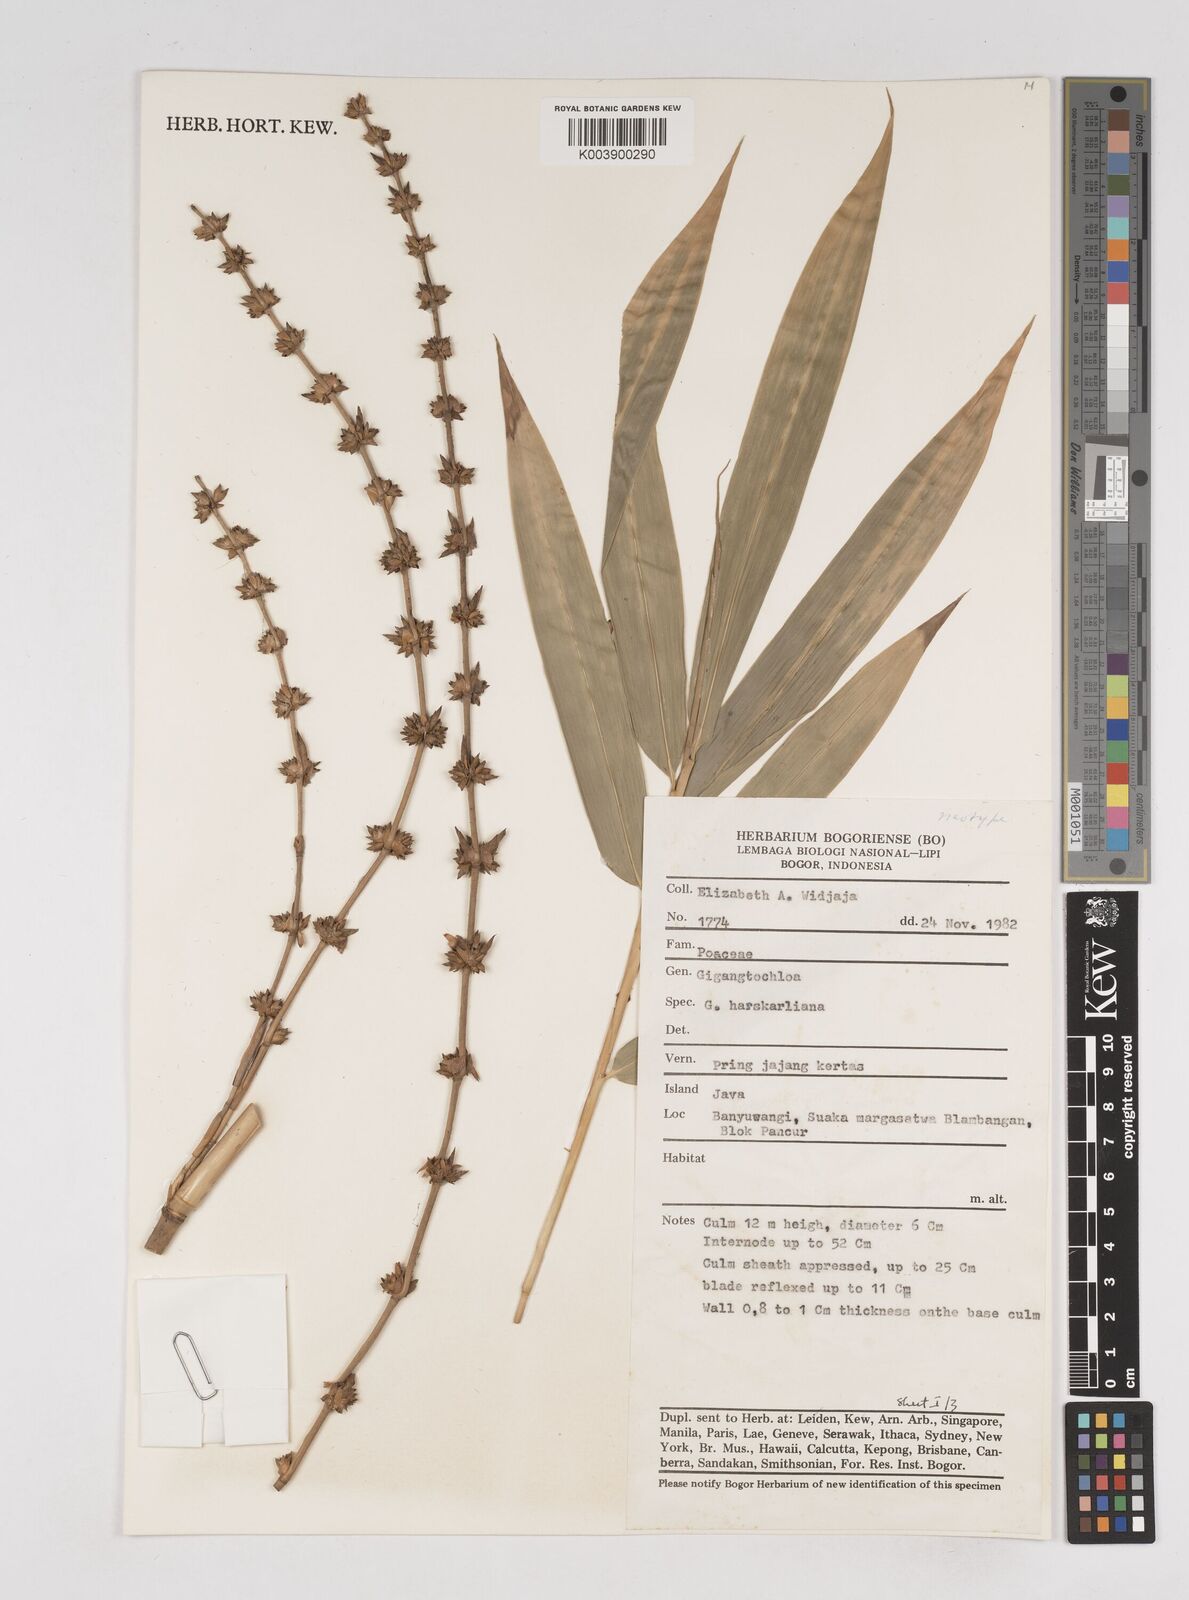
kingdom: Plantae
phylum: Tracheophyta
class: Liliopsida
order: Poales
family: Poaceae
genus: Gigantochloa
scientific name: Gigantochloa hasskarliana
